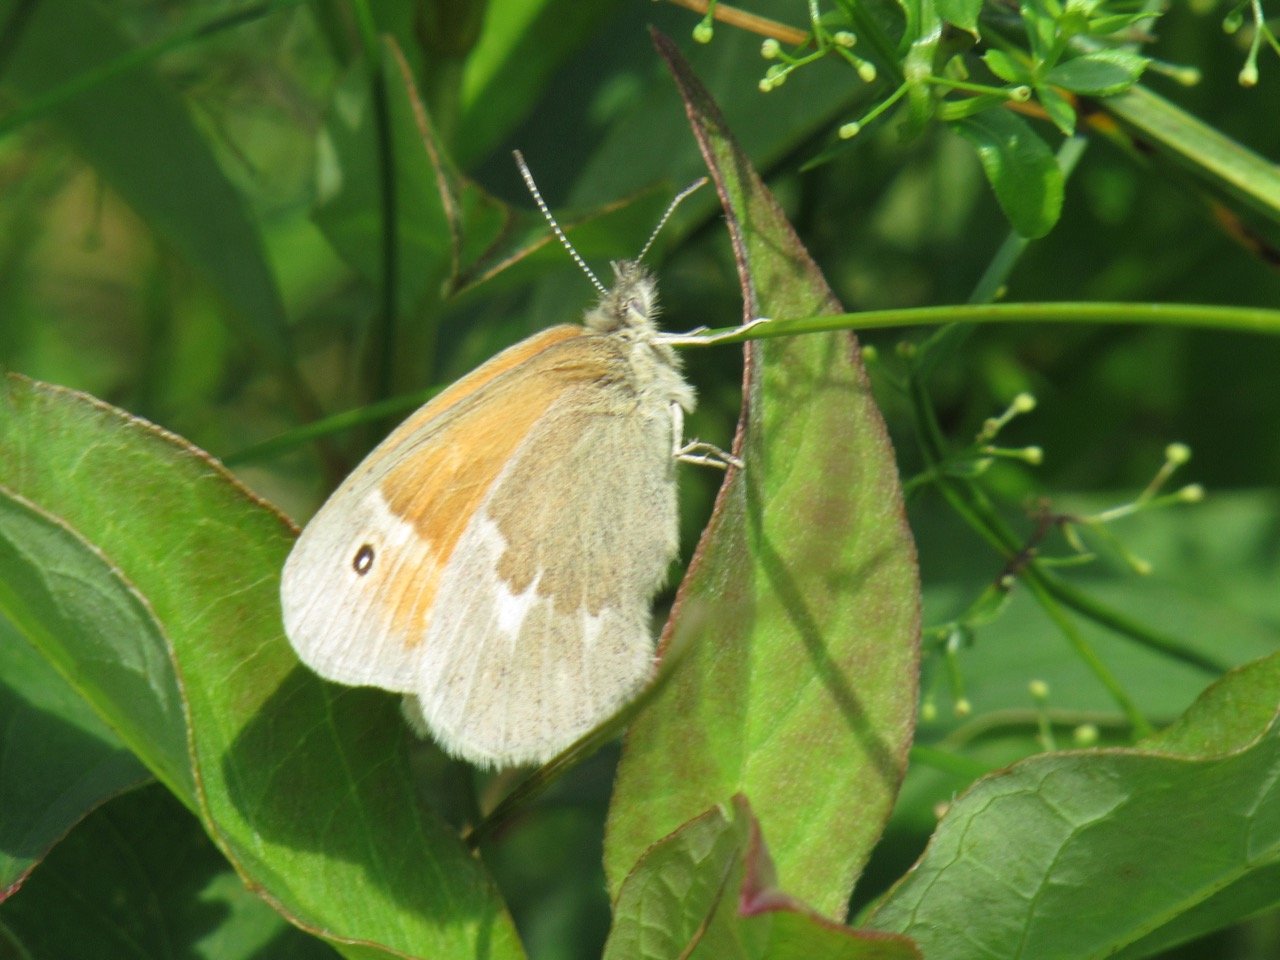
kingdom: Animalia
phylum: Arthropoda
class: Insecta
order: Lepidoptera
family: Nymphalidae
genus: Coenonympha
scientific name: Coenonympha tullia
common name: Large Heath
